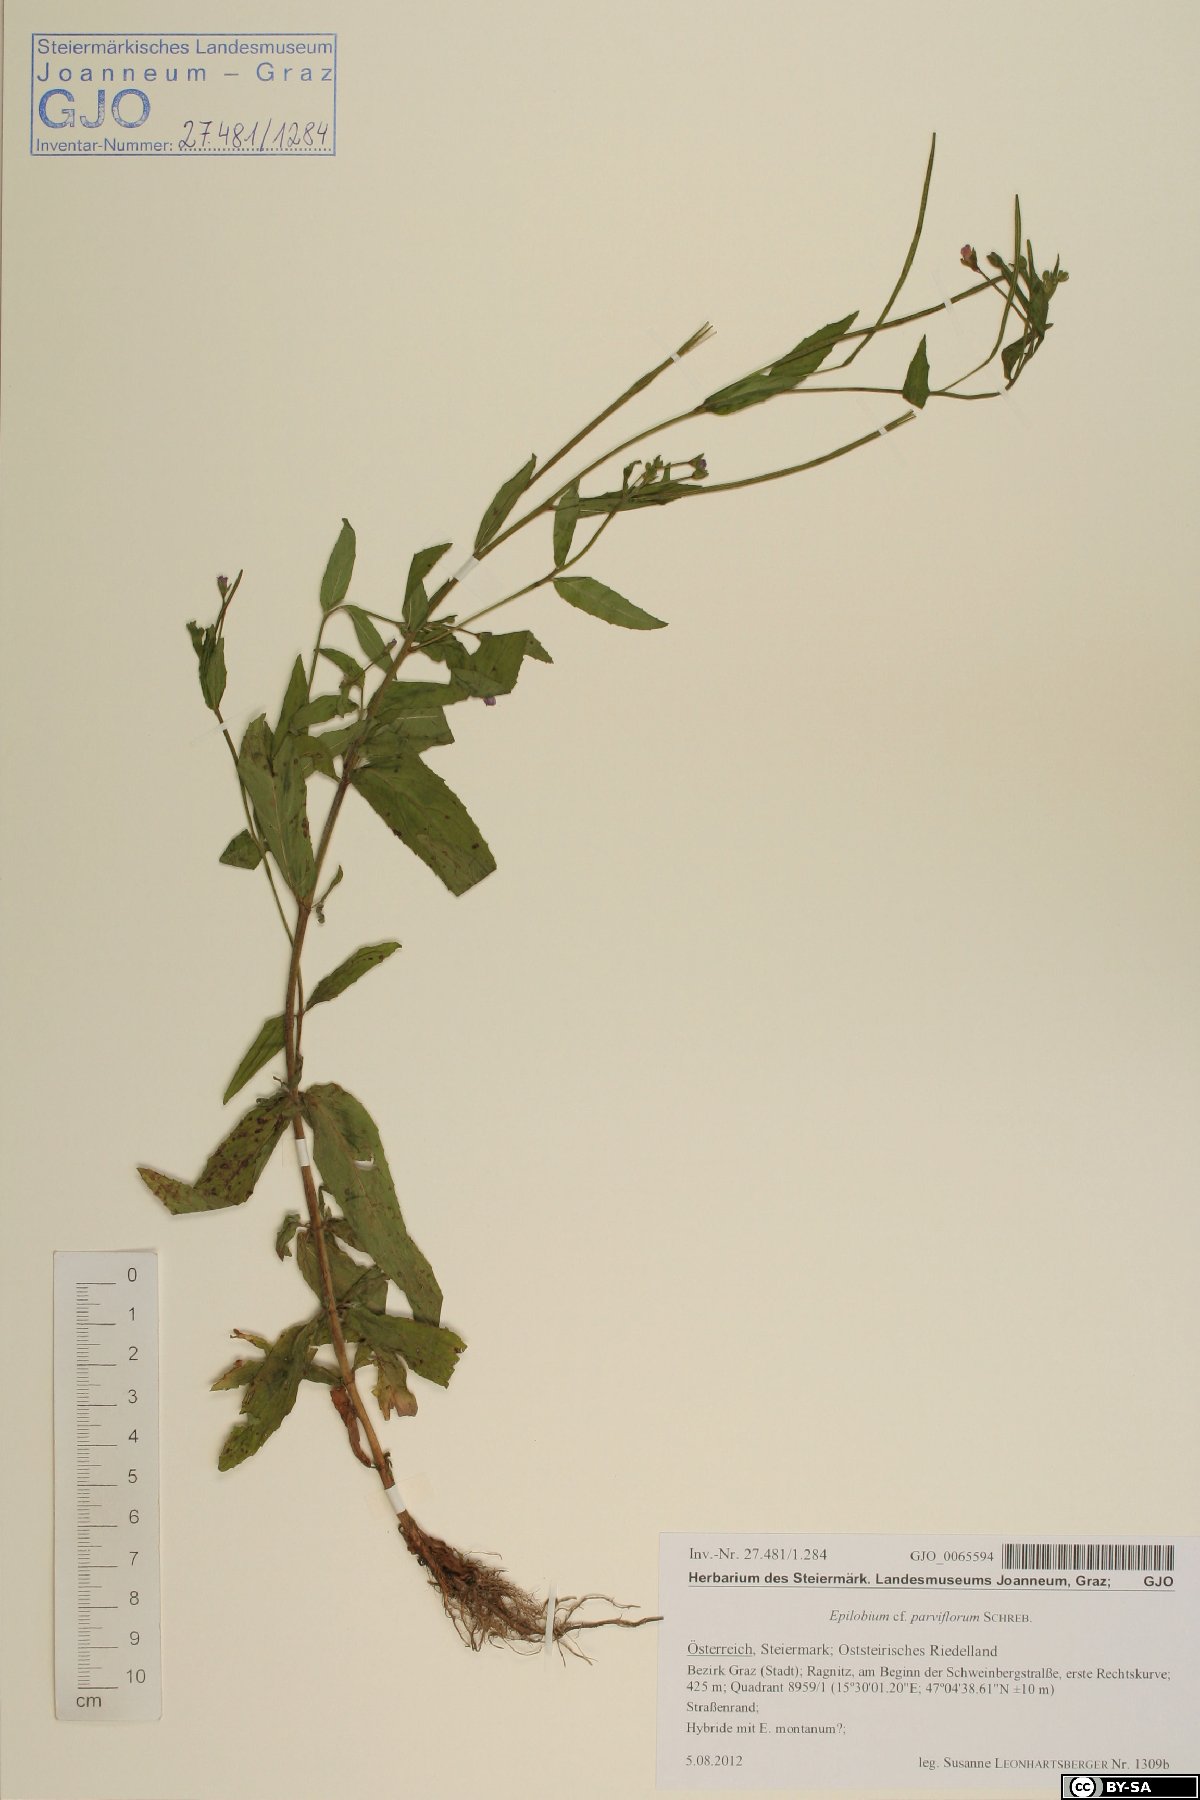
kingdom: Plantae
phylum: Tracheophyta
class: Magnoliopsida
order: Myrtales
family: Onagraceae
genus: Epilobium
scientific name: Epilobium parviflorum
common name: Hoary willowherb
